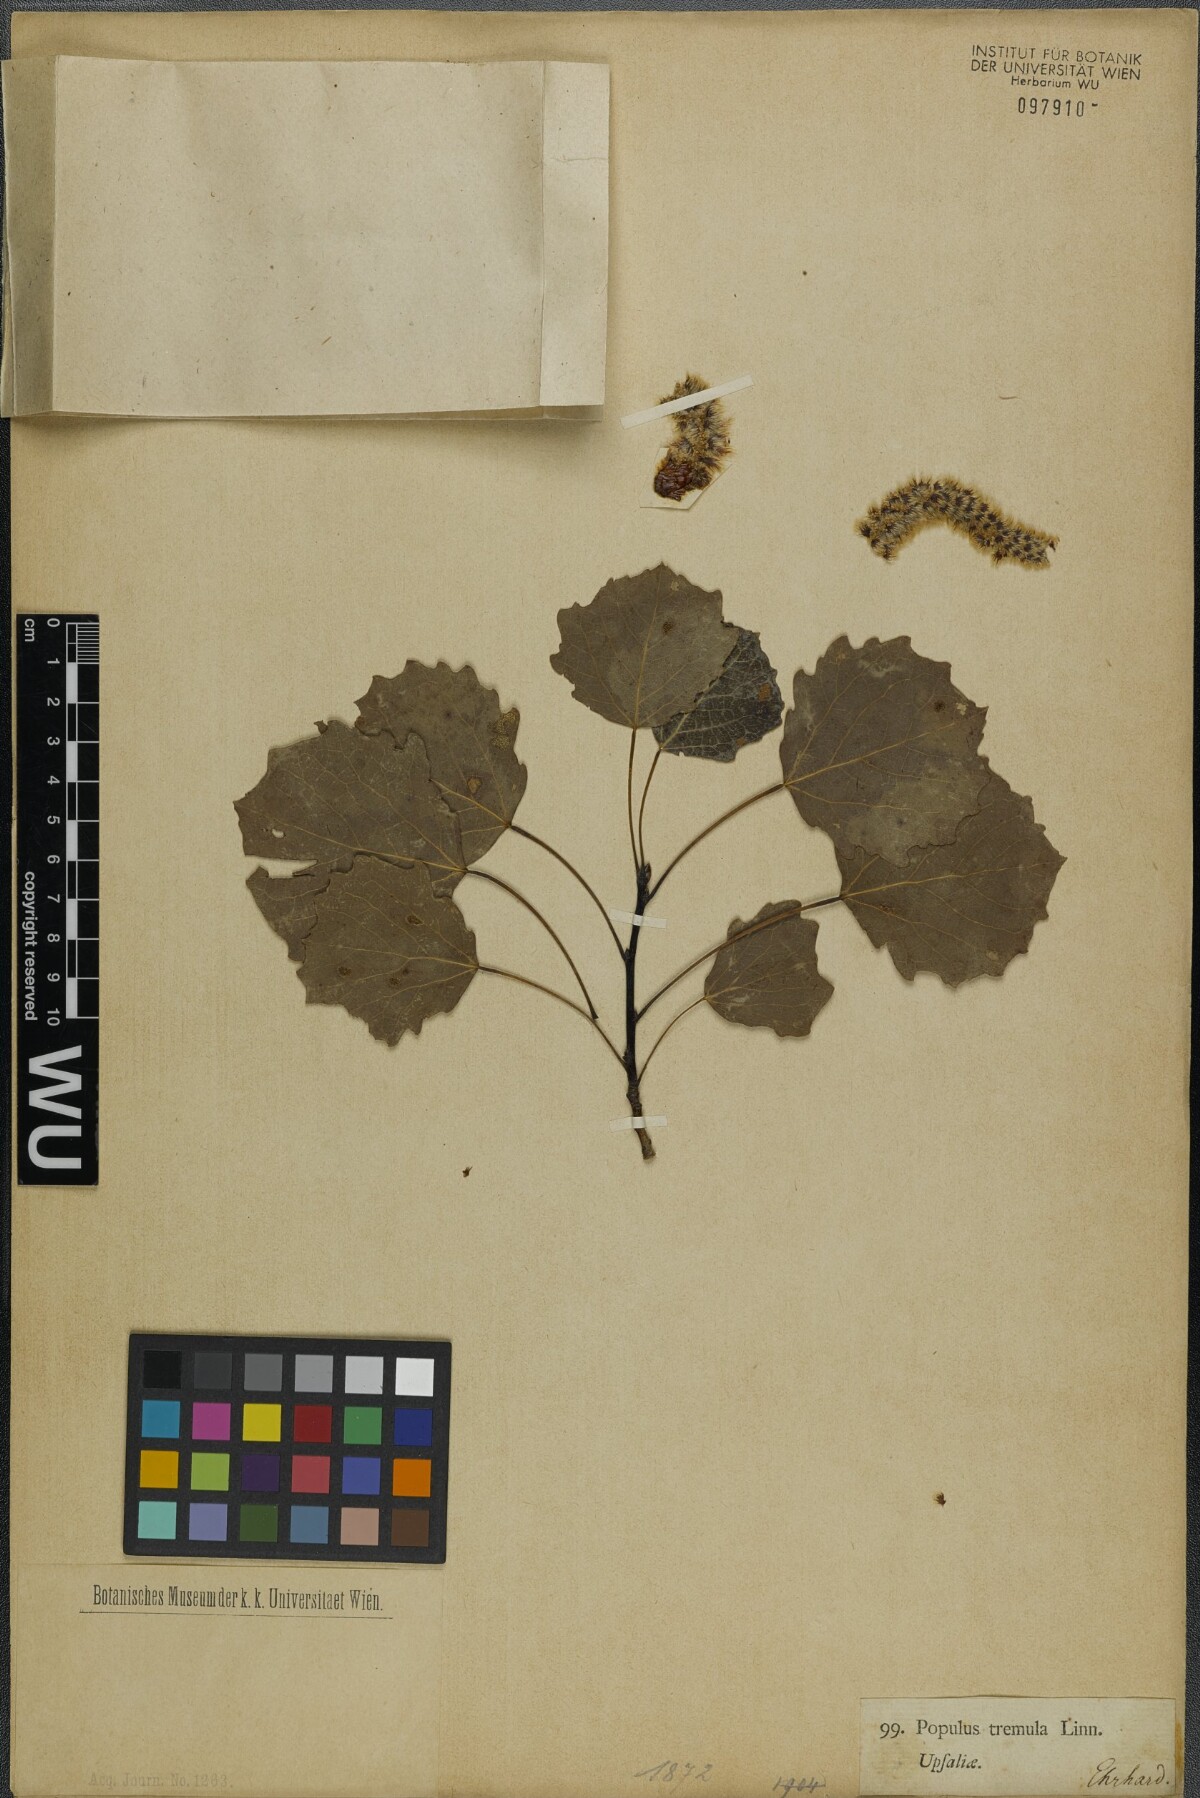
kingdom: Plantae
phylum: Tracheophyta
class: Magnoliopsida
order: Malpighiales
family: Salicaceae
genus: Populus
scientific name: Populus tremula
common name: European aspen
